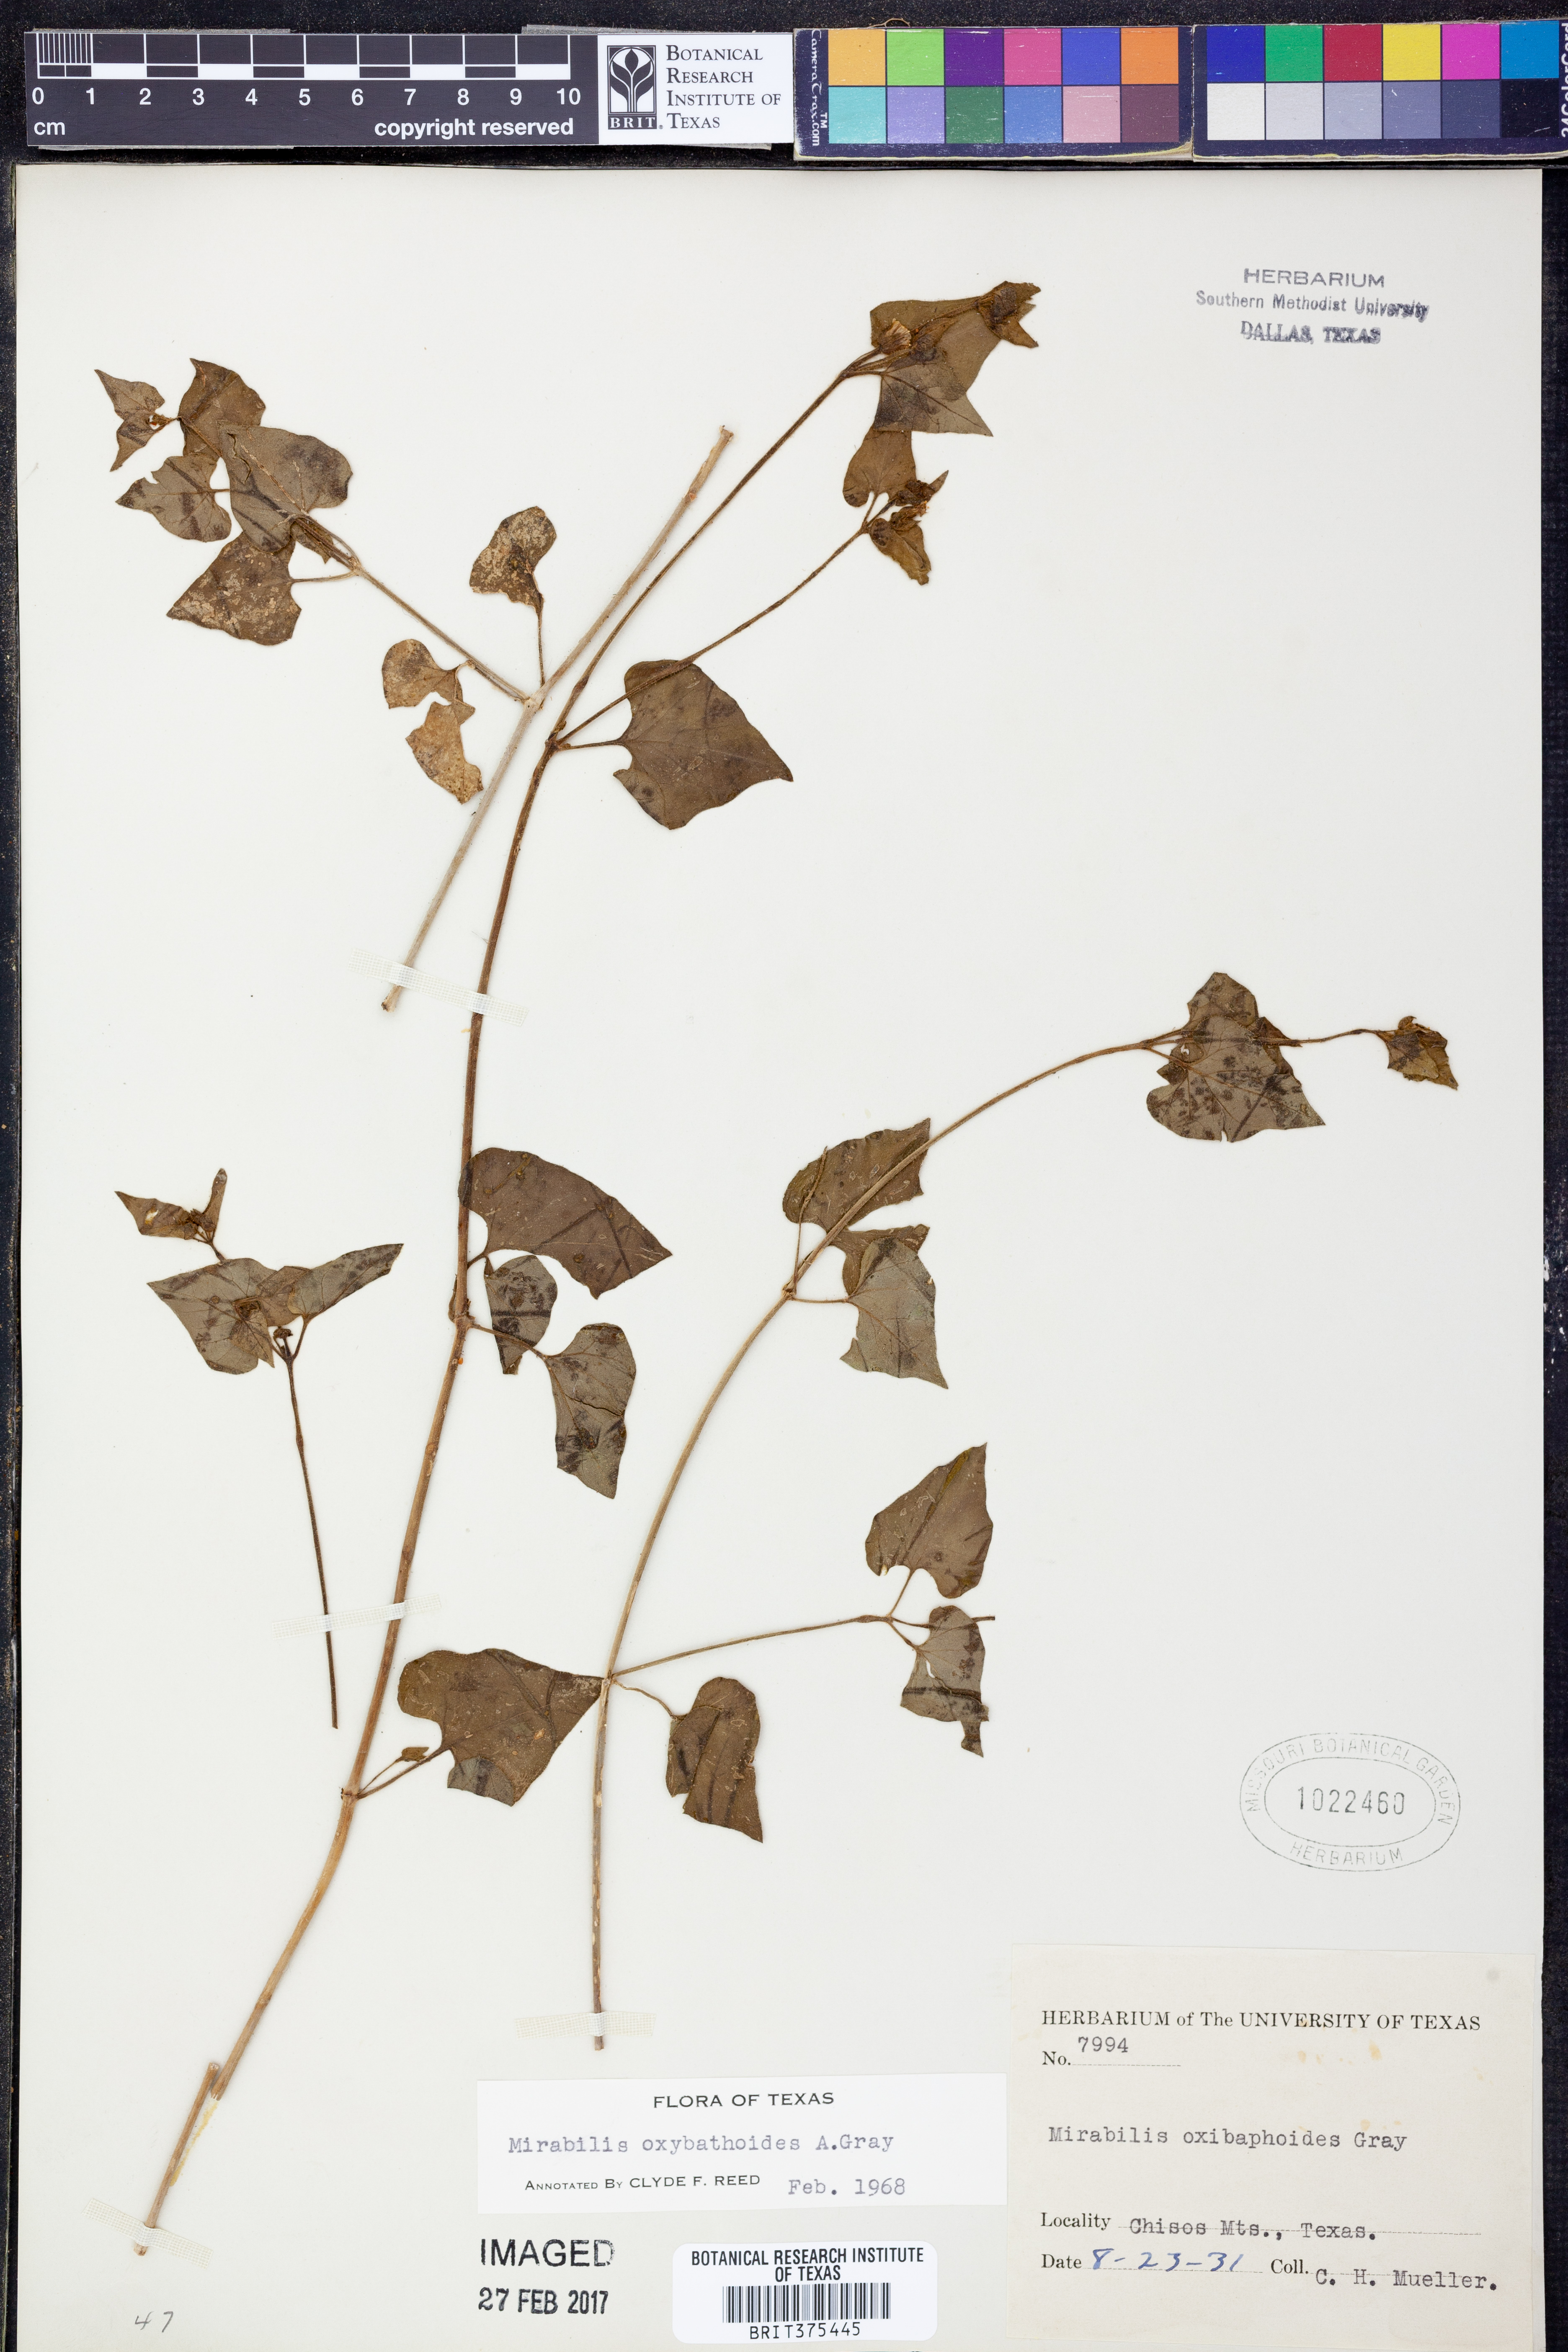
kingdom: Plantae
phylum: Tracheophyta
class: Magnoliopsida
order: Caryophyllales
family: Nyctaginaceae
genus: Mirabilis
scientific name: Mirabilis oxybaphoides
